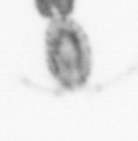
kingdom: Animalia
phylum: Arthropoda
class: Copepoda
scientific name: Copepoda
